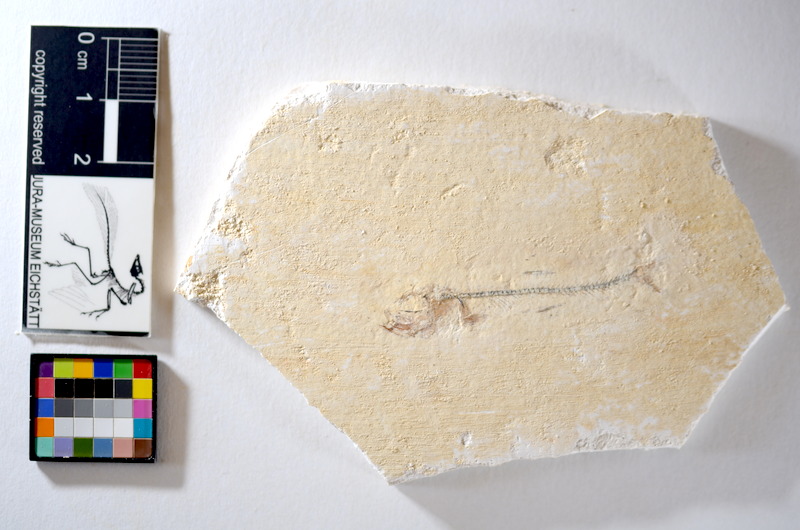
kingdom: Animalia
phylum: Chordata
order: Salmoniformes
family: Orthogonikleithridae
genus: Orthogonikleithrus
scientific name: Orthogonikleithrus hoelli
